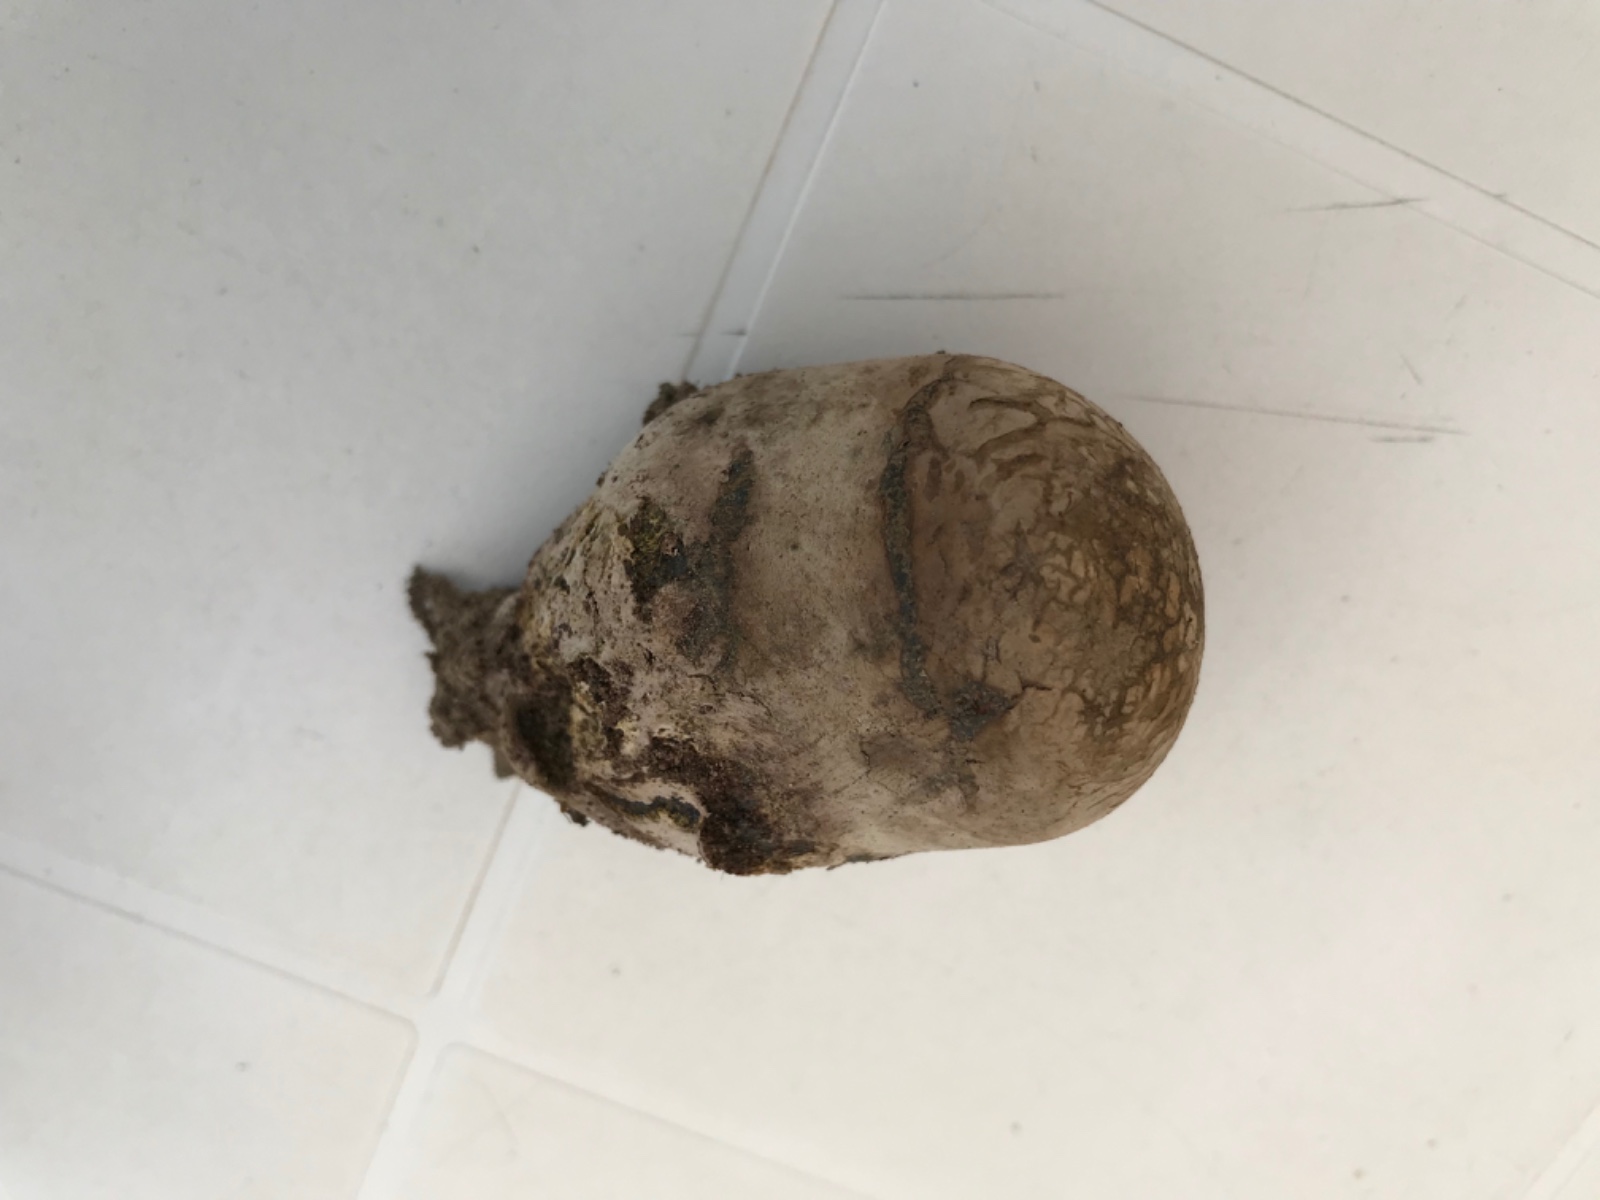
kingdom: Fungi
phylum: Basidiomycota
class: Agaricomycetes
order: Boletales
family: Sclerodermataceae
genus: Pisolithus
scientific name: Pisolithus
